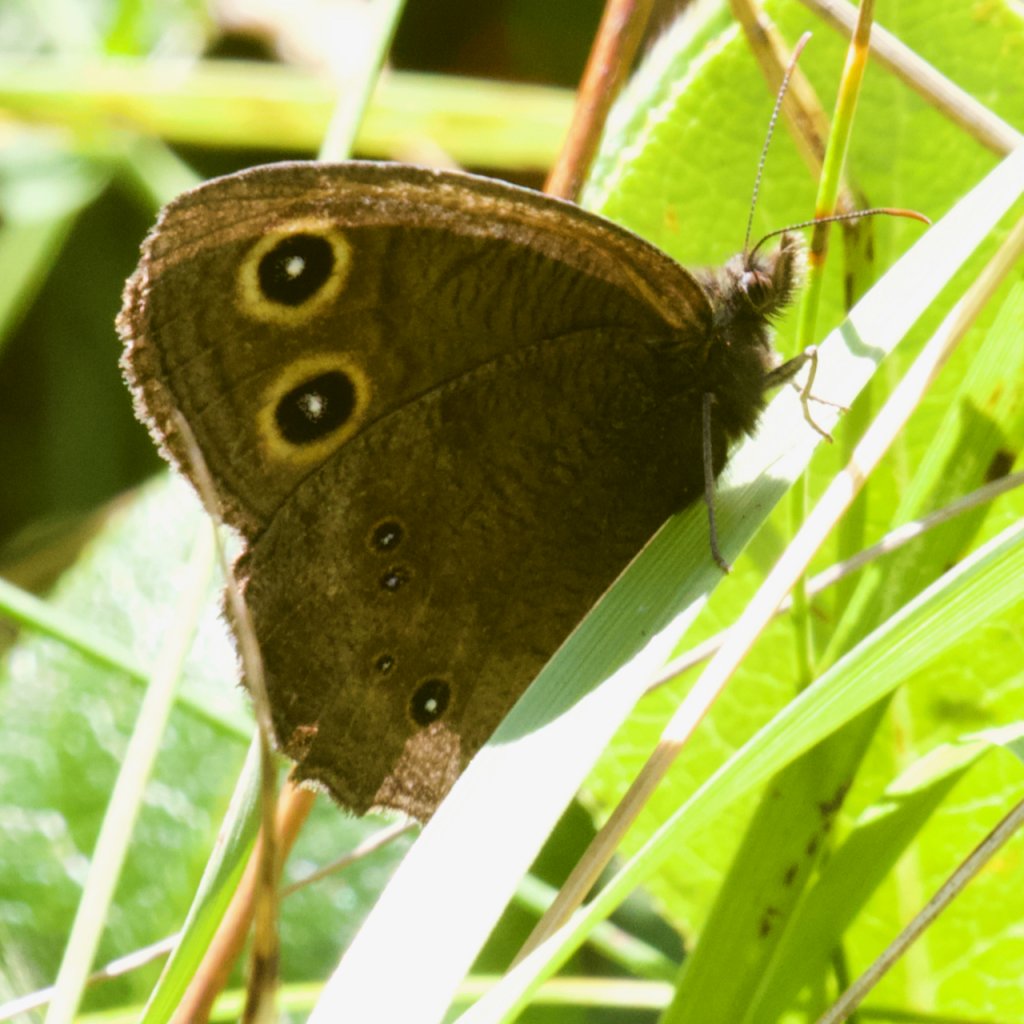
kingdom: Animalia
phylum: Arthropoda
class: Insecta
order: Lepidoptera
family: Nymphalidae
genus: Cercyonis
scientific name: Cercyonis pegala
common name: Common Wood-Nymph
